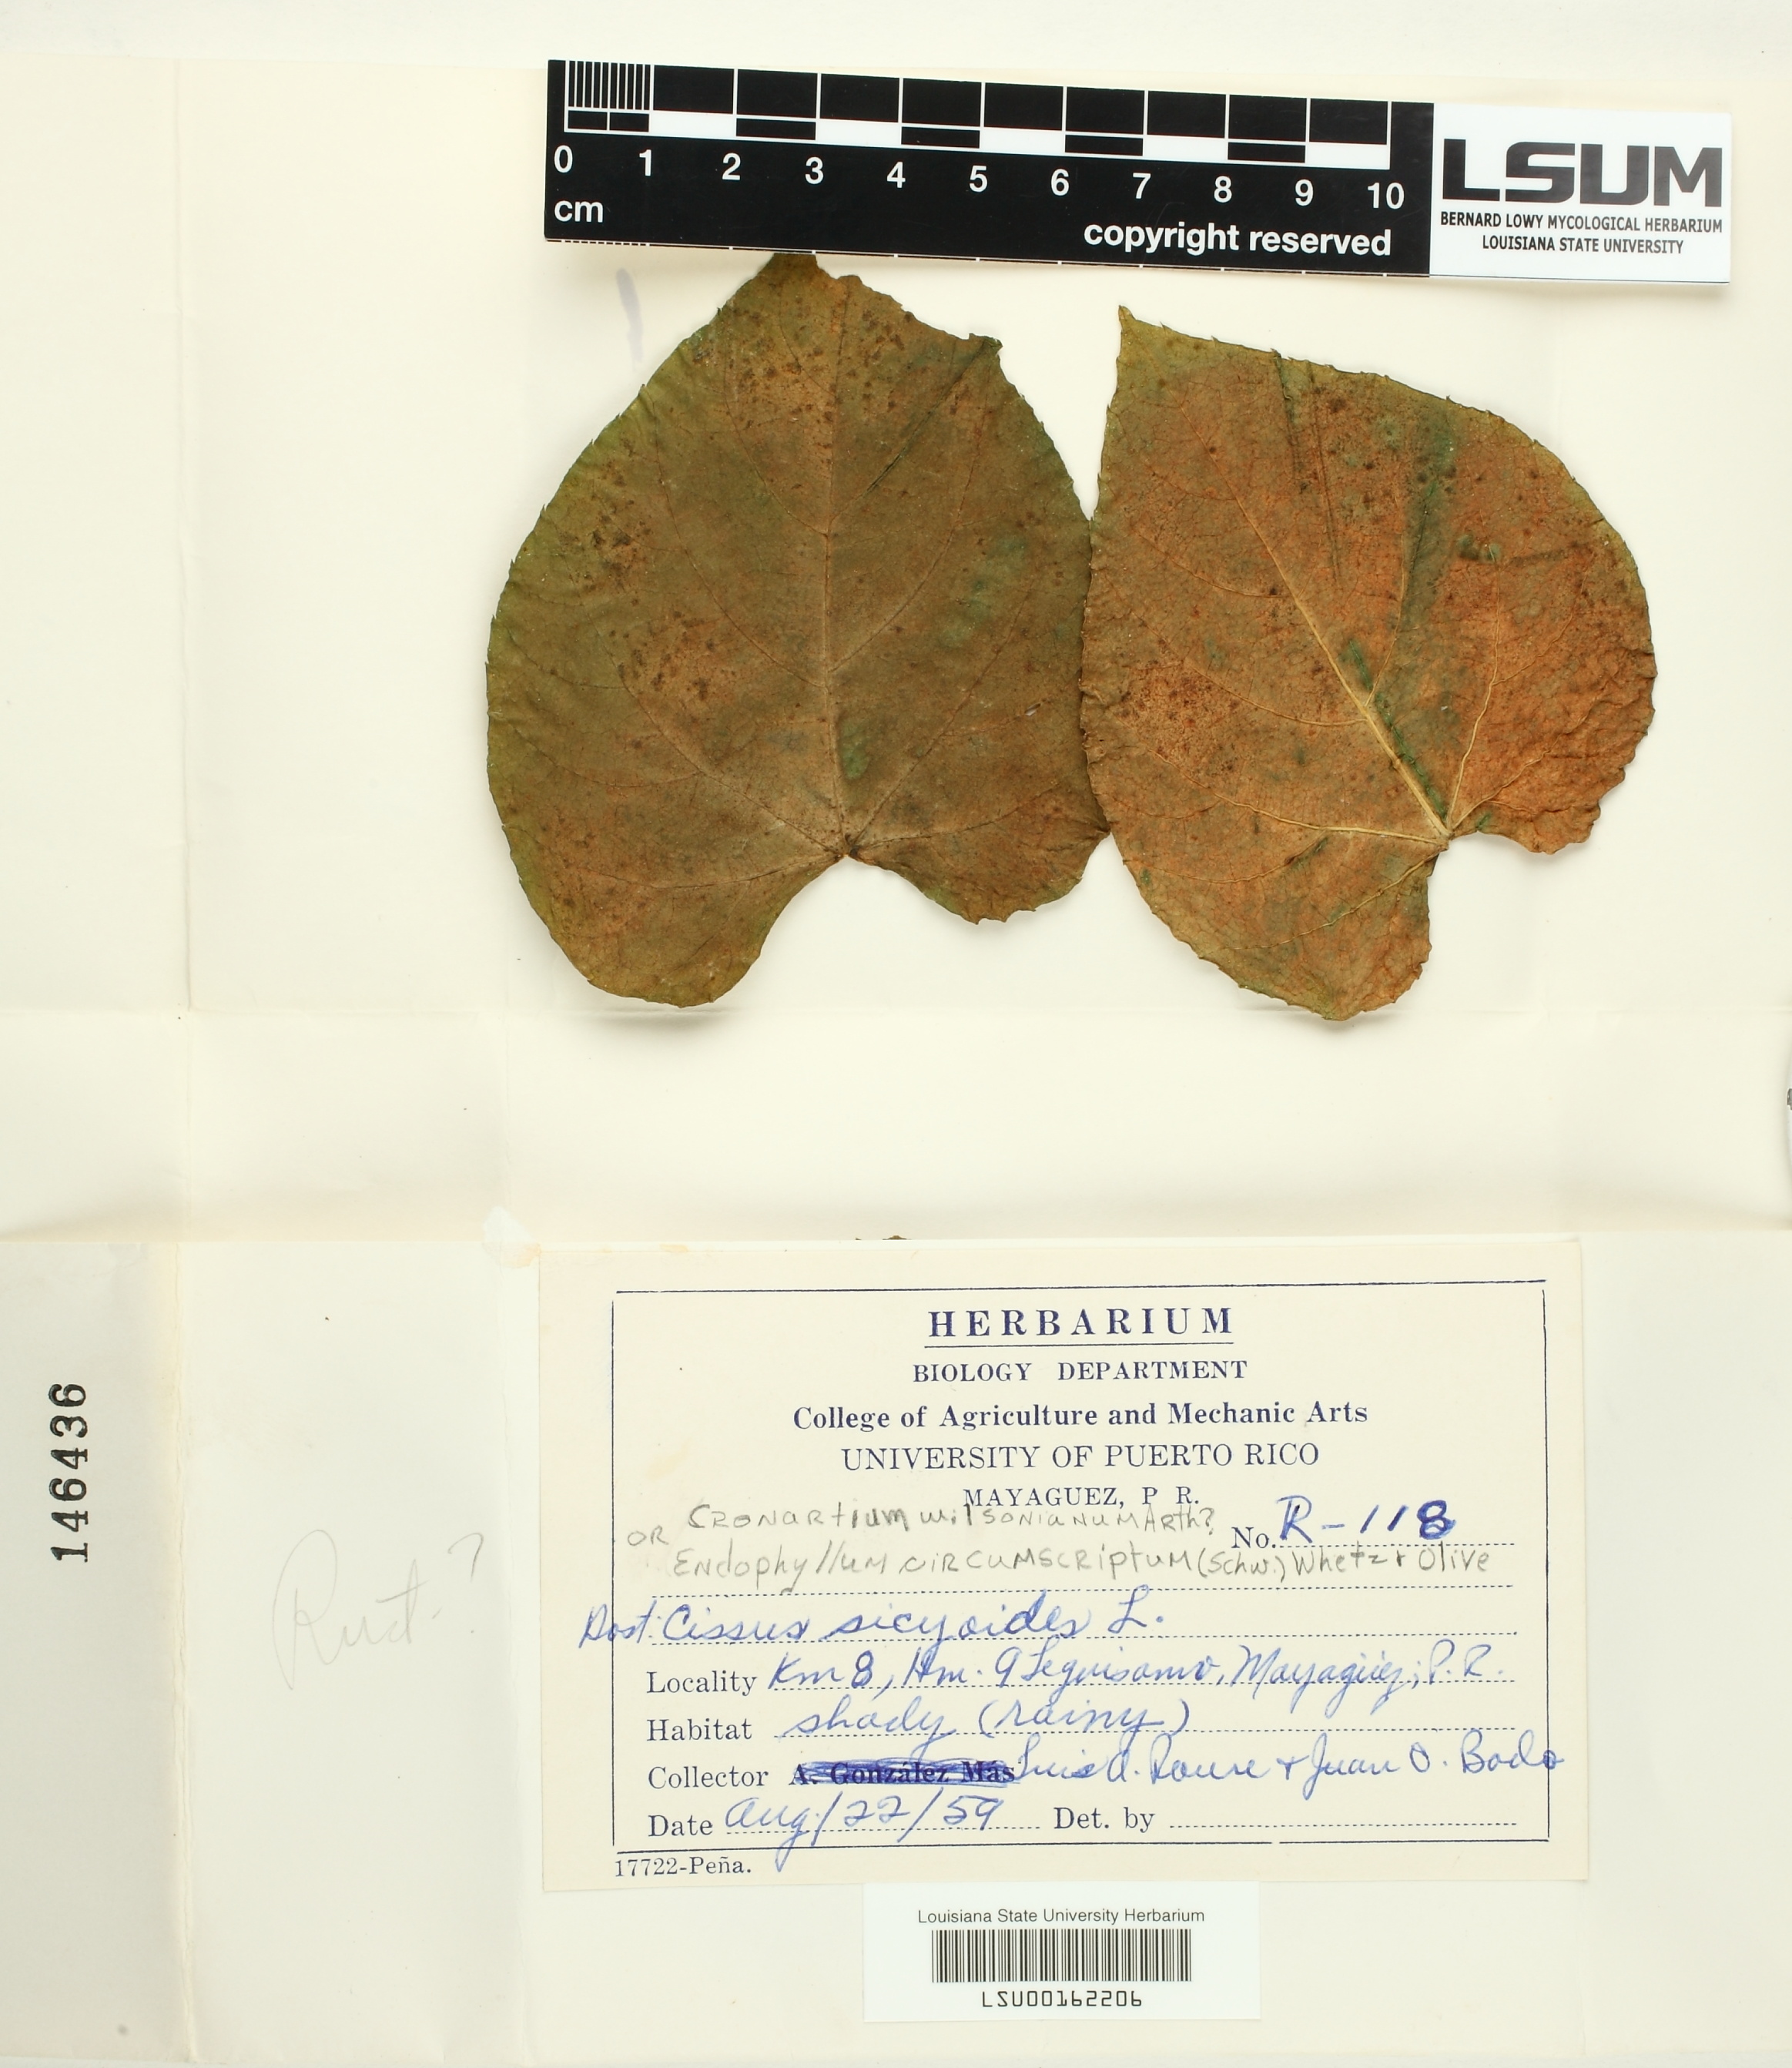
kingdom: Fungi
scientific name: Fungi
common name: Fungi
